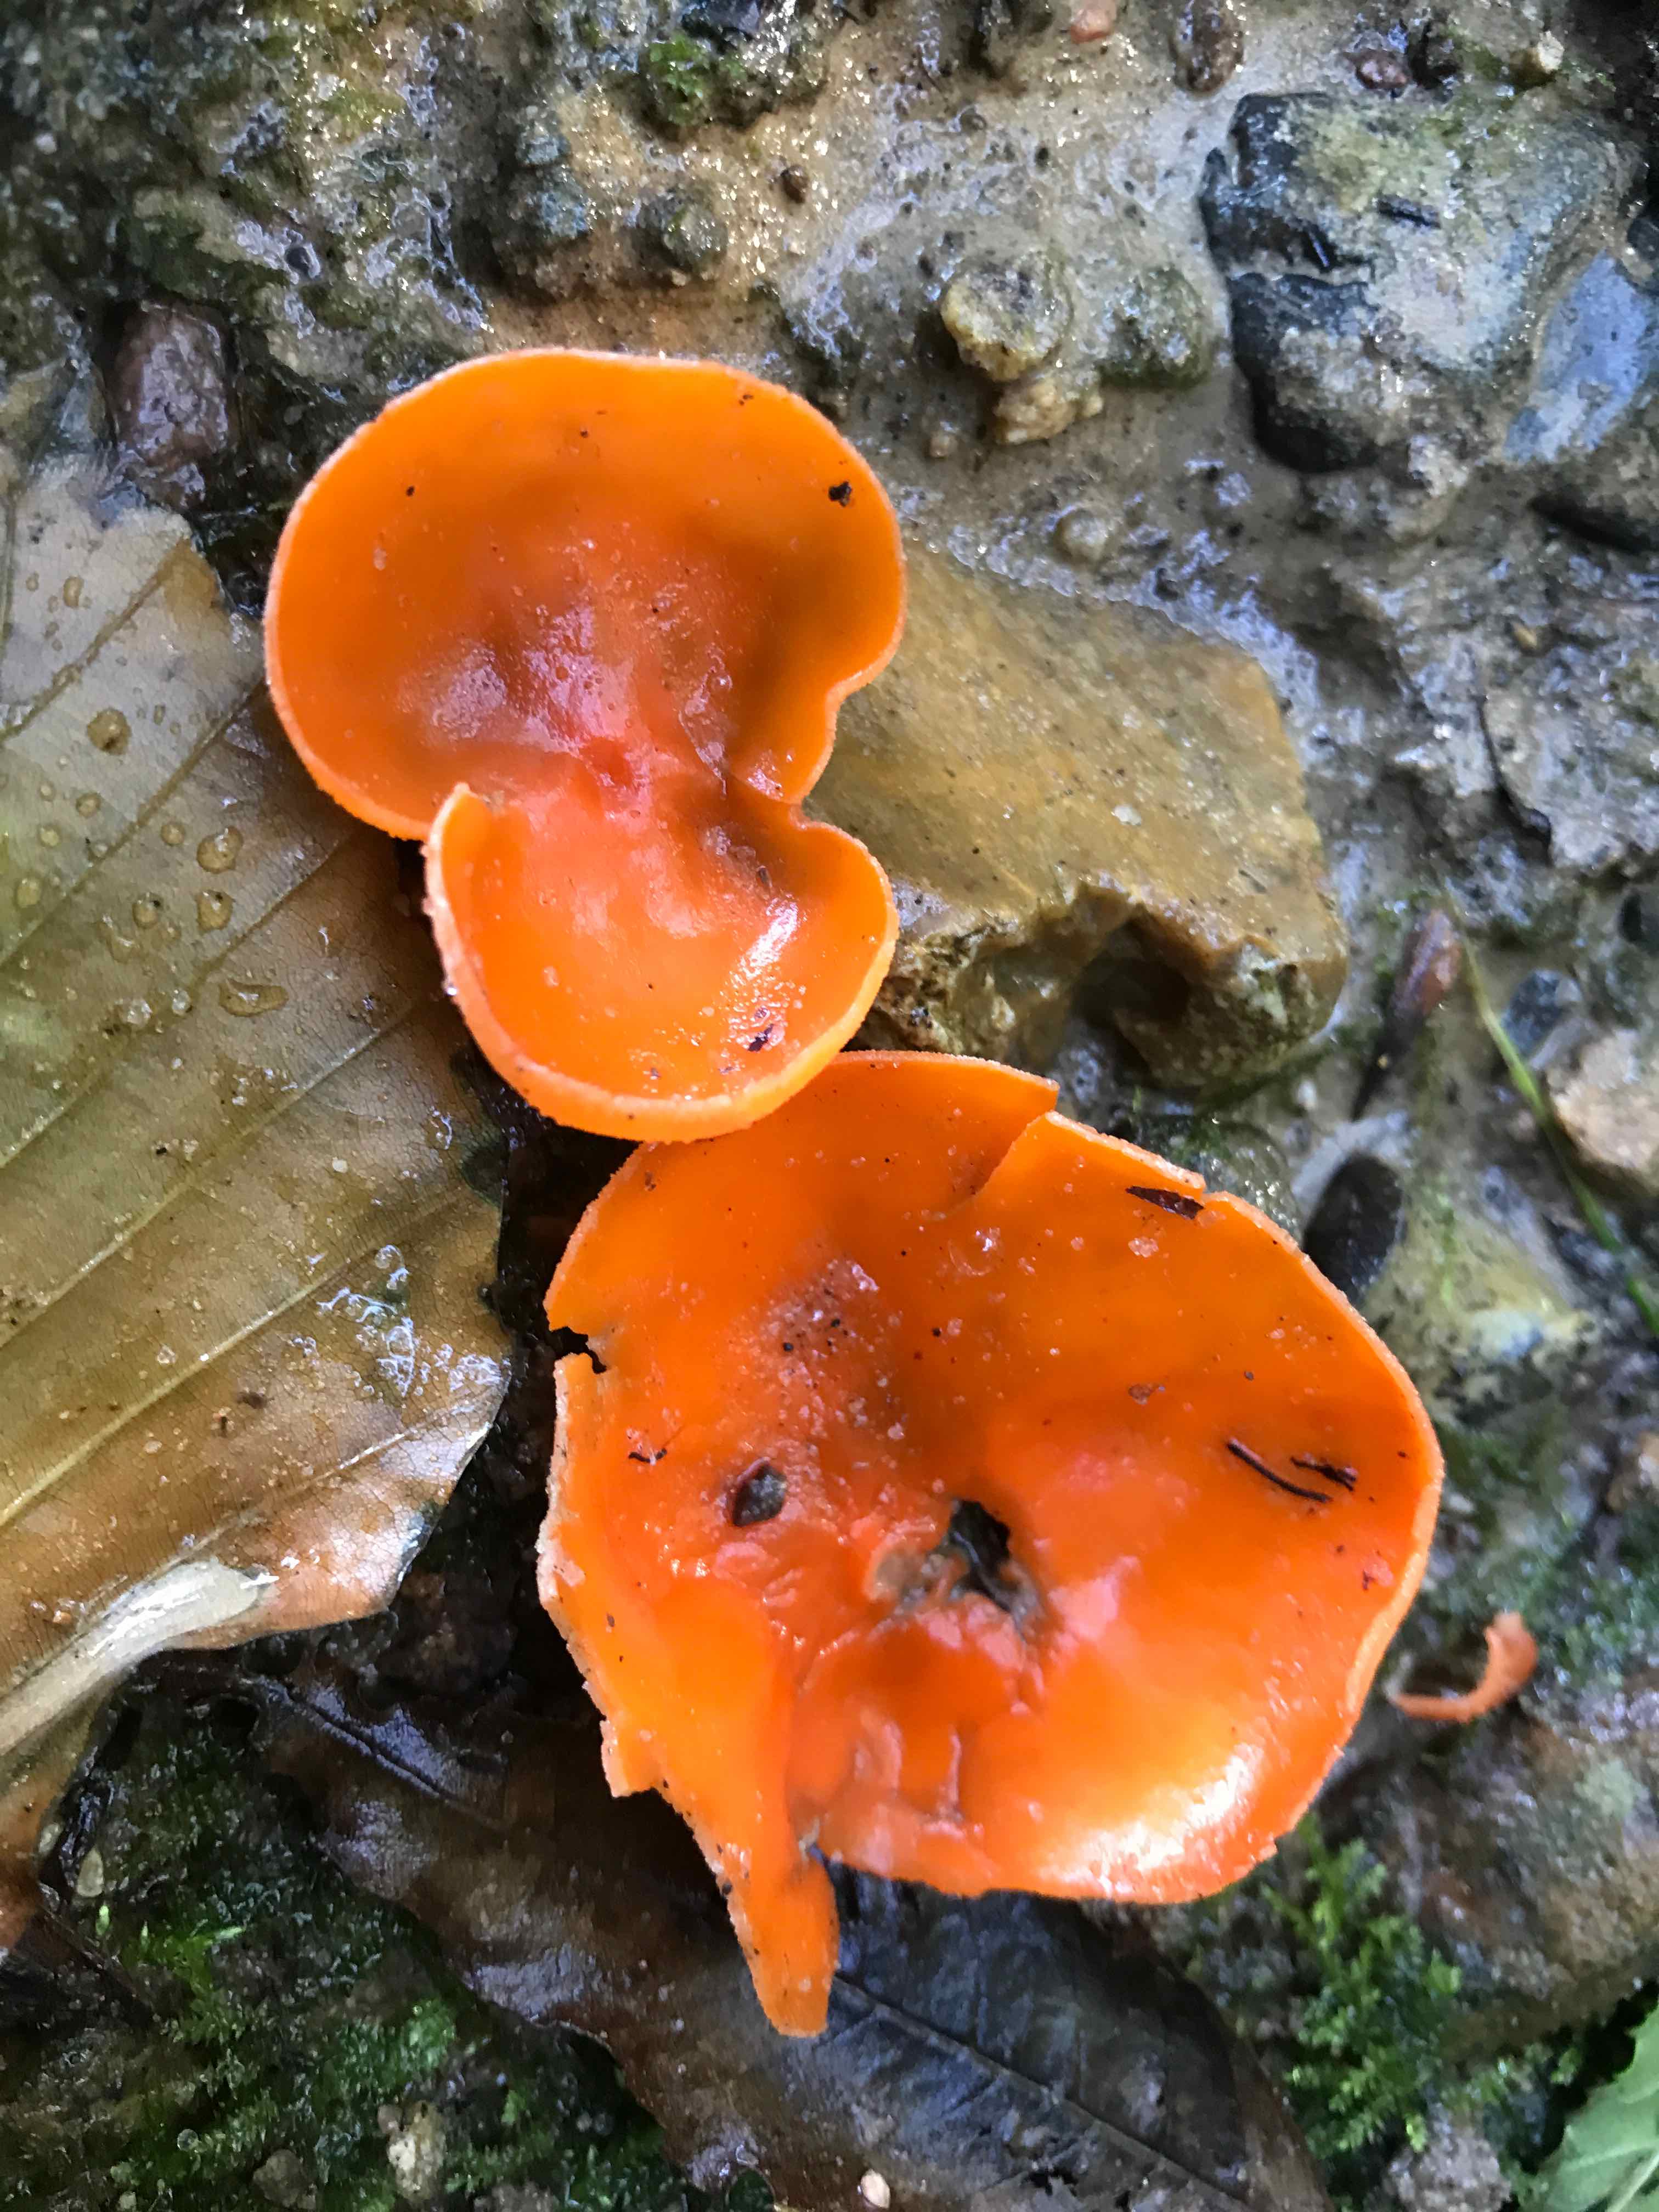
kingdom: Fungi
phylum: Ascomycota
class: Pezizomycetes
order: Pezizales
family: Pyronemataceae
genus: Aleuria
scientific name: Aleuria aurantia
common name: almindelig orangebæger
